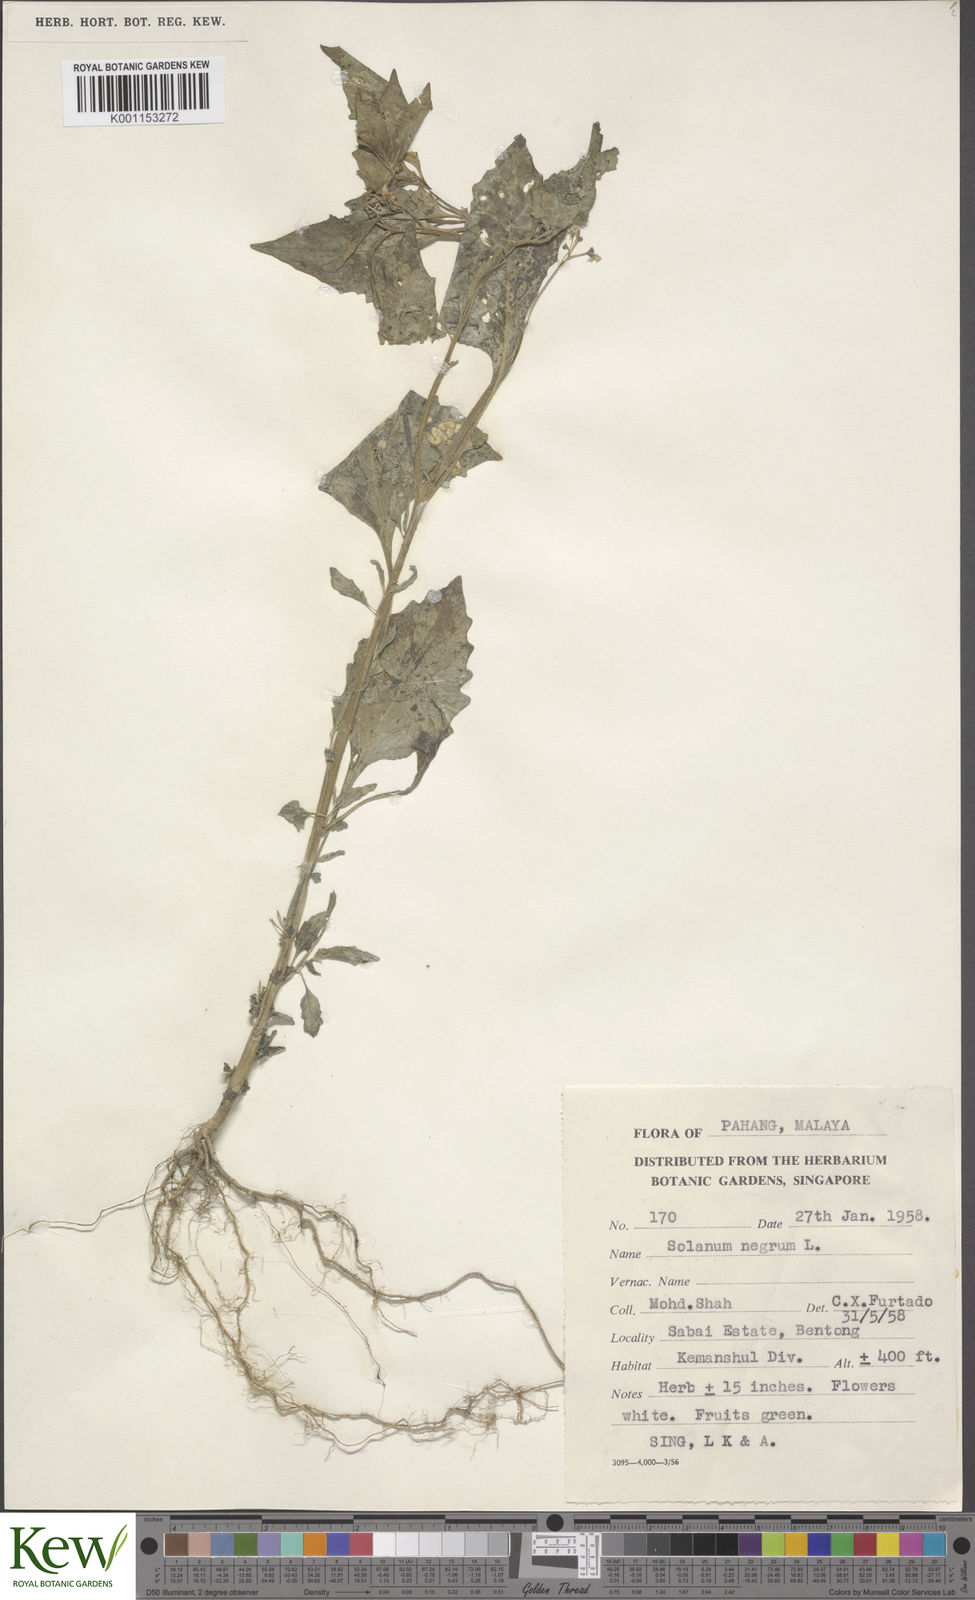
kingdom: Plantae
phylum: Tracheophyta
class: Magnoliopsida
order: Solanales
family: Solanaceae
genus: Solanum
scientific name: Solanum americanum
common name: American black nightshade
